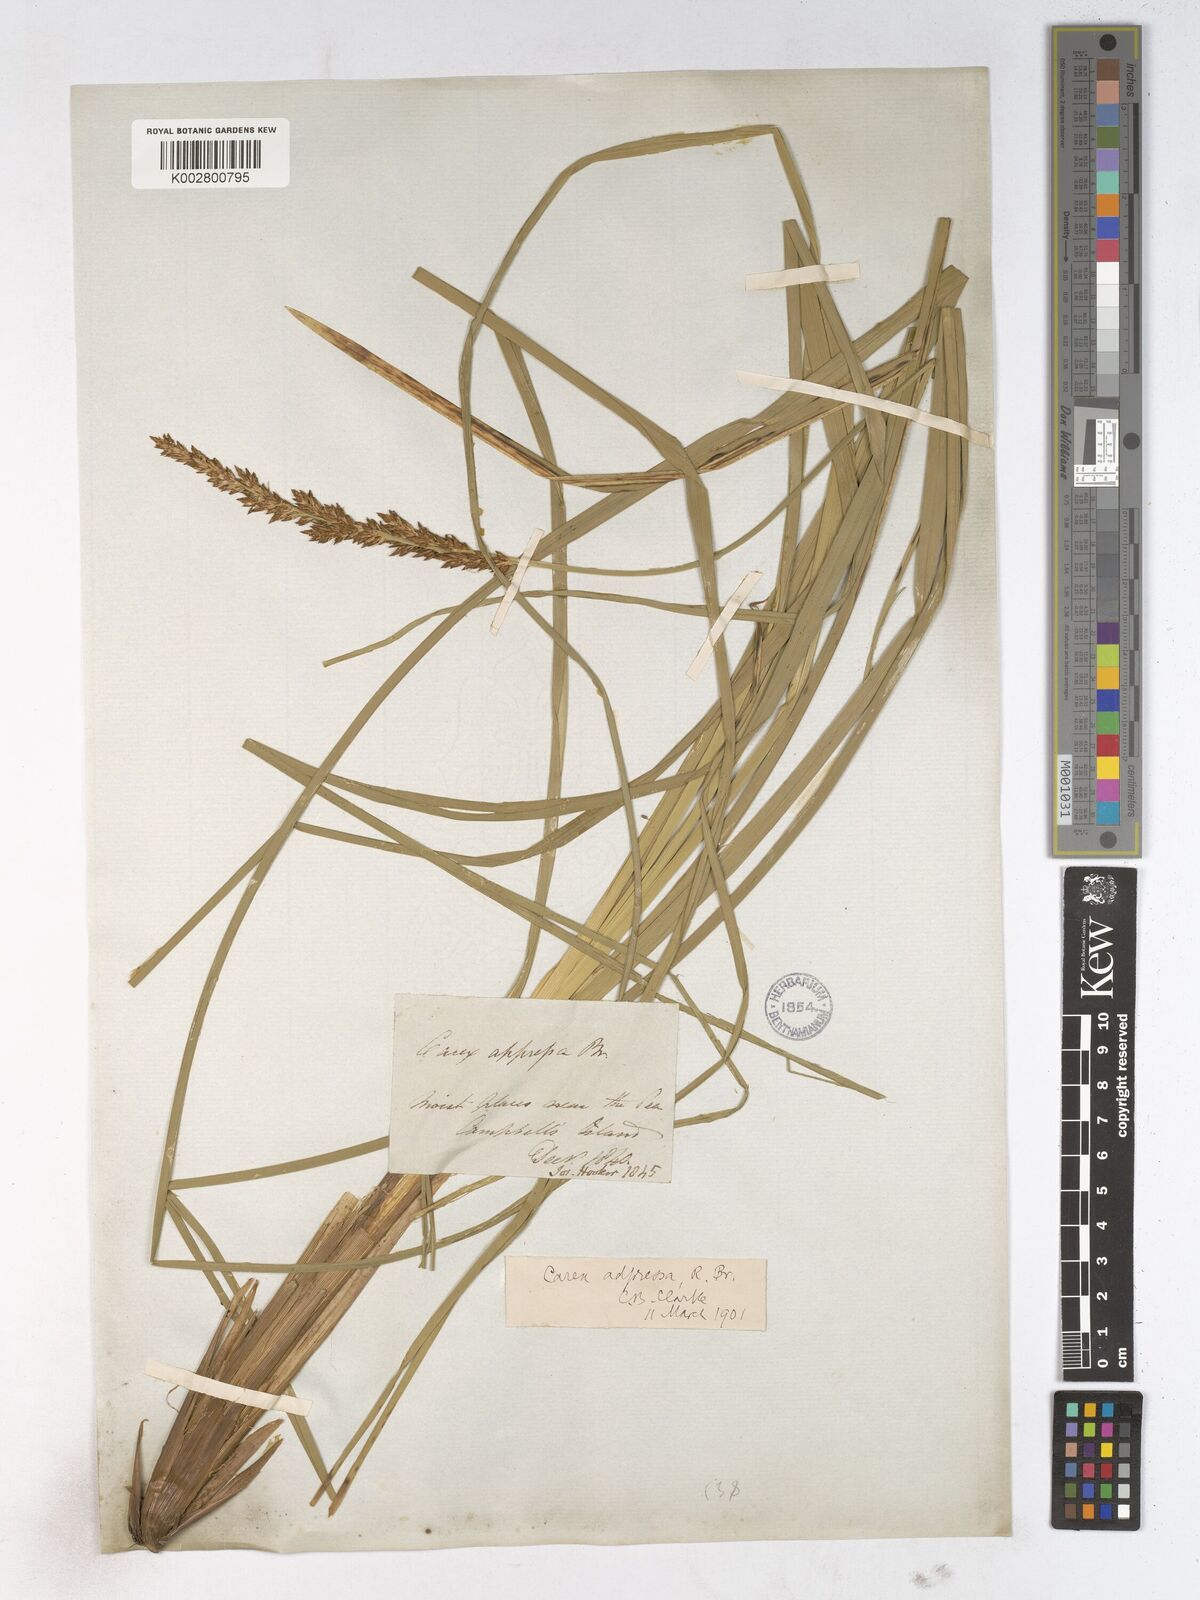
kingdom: Plantae
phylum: Tracheophyta
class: Liliopsida
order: Poales
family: Cyperaceae
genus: Carex
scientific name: Carex appressa
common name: Tussock sedge
